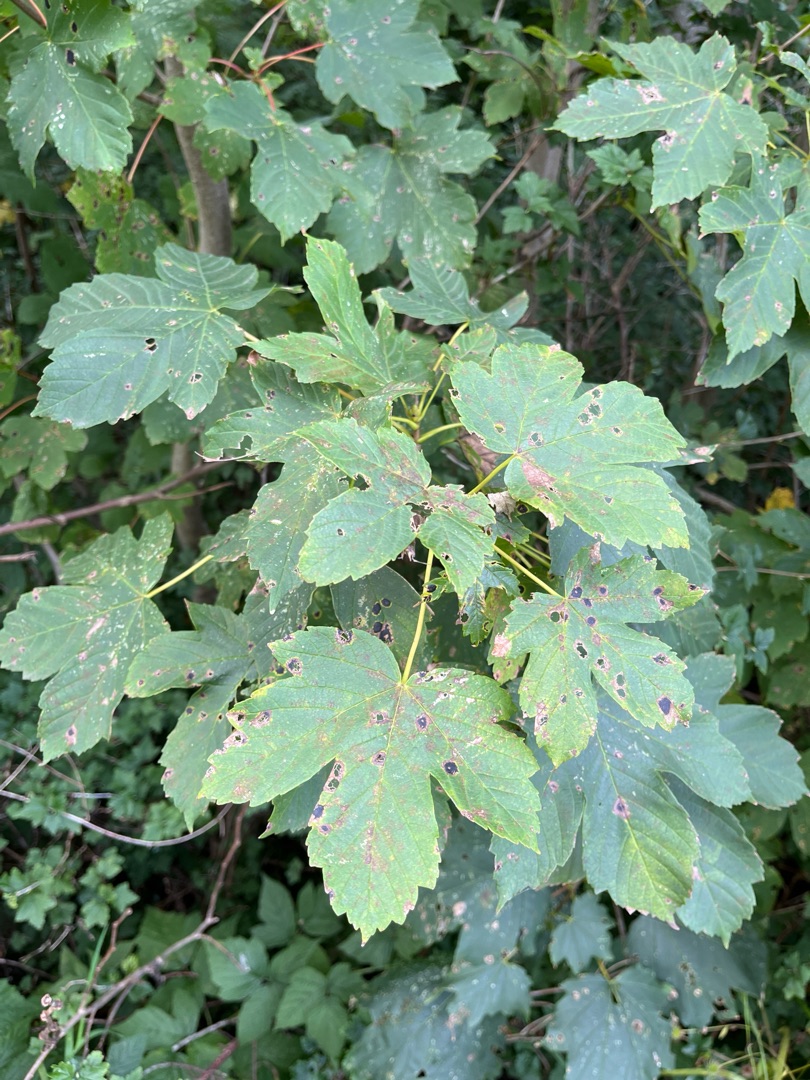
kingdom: Plantae
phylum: Tracheophyta
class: Magnoliopsida
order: Sapindales
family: Sapindaceae
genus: Acer
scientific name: Acer pseudoplatanus
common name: Ahorn
